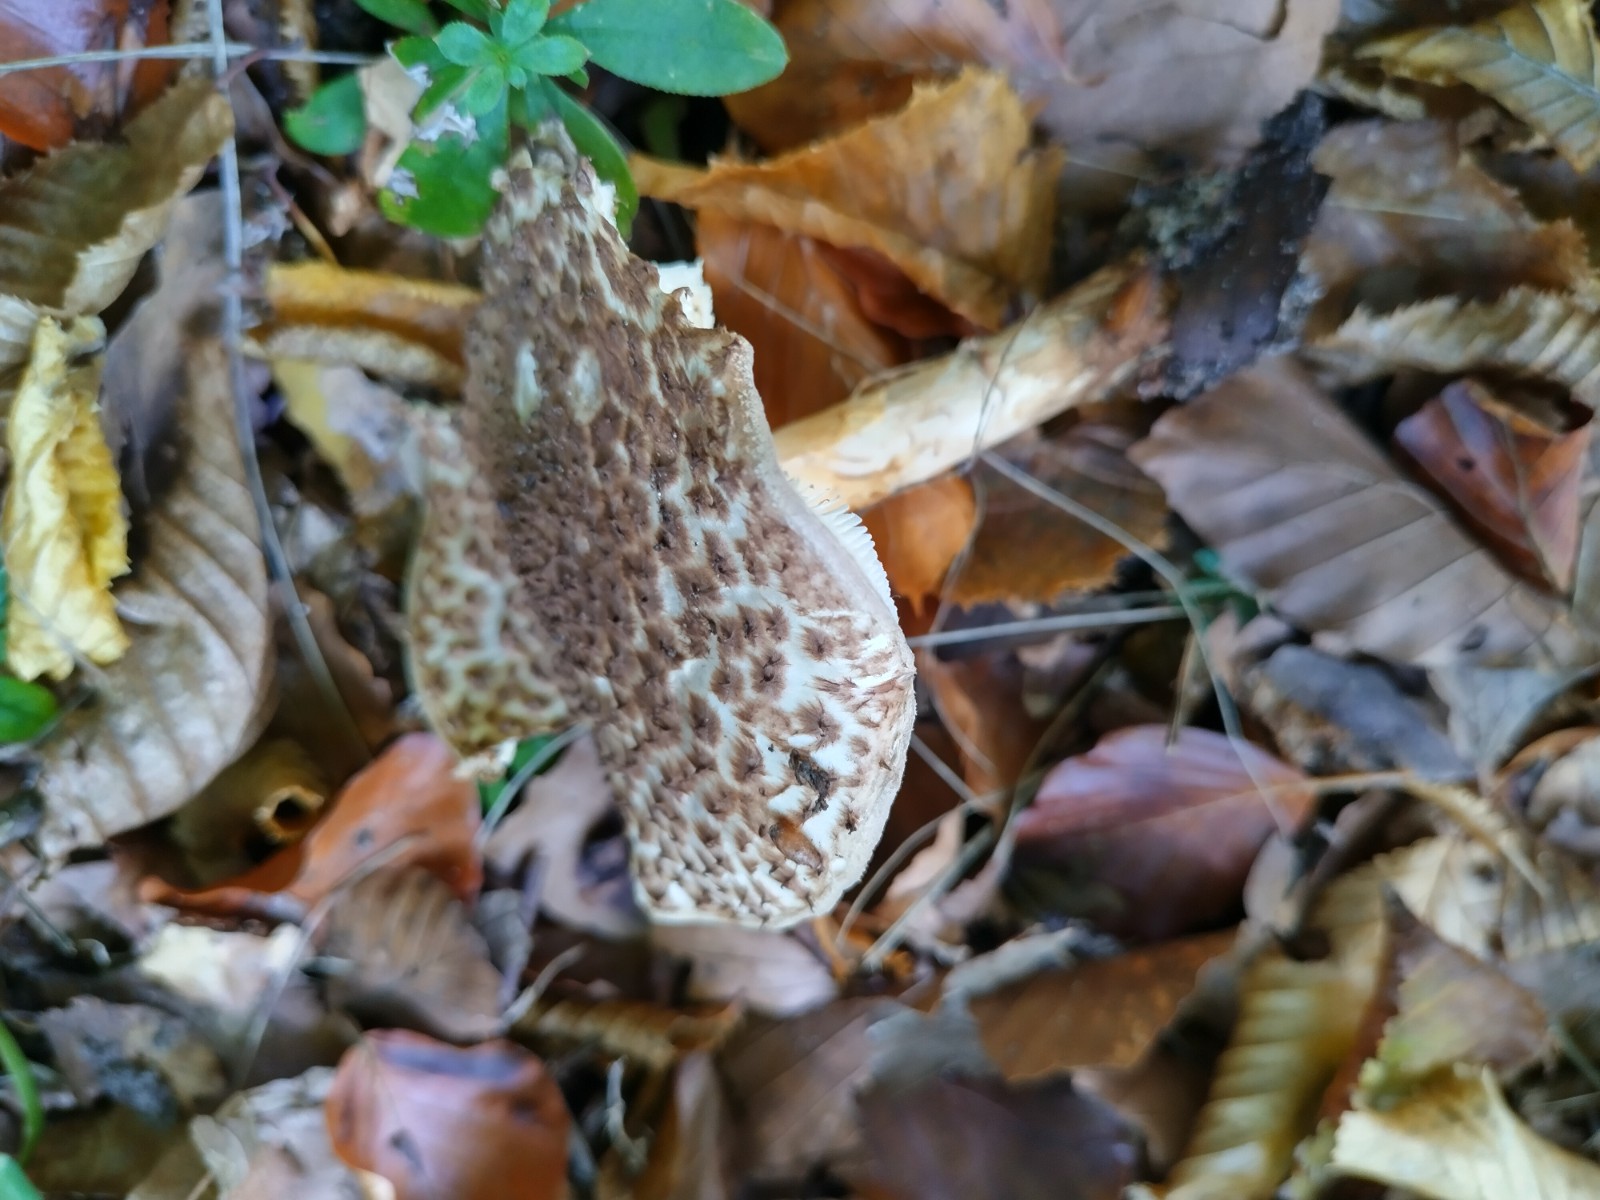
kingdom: Fungi
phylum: Basidiomycota
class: Agaricomycetes
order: Agaricales
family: Agaricaceae
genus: Echinoderma
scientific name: Echinoderma asperum
